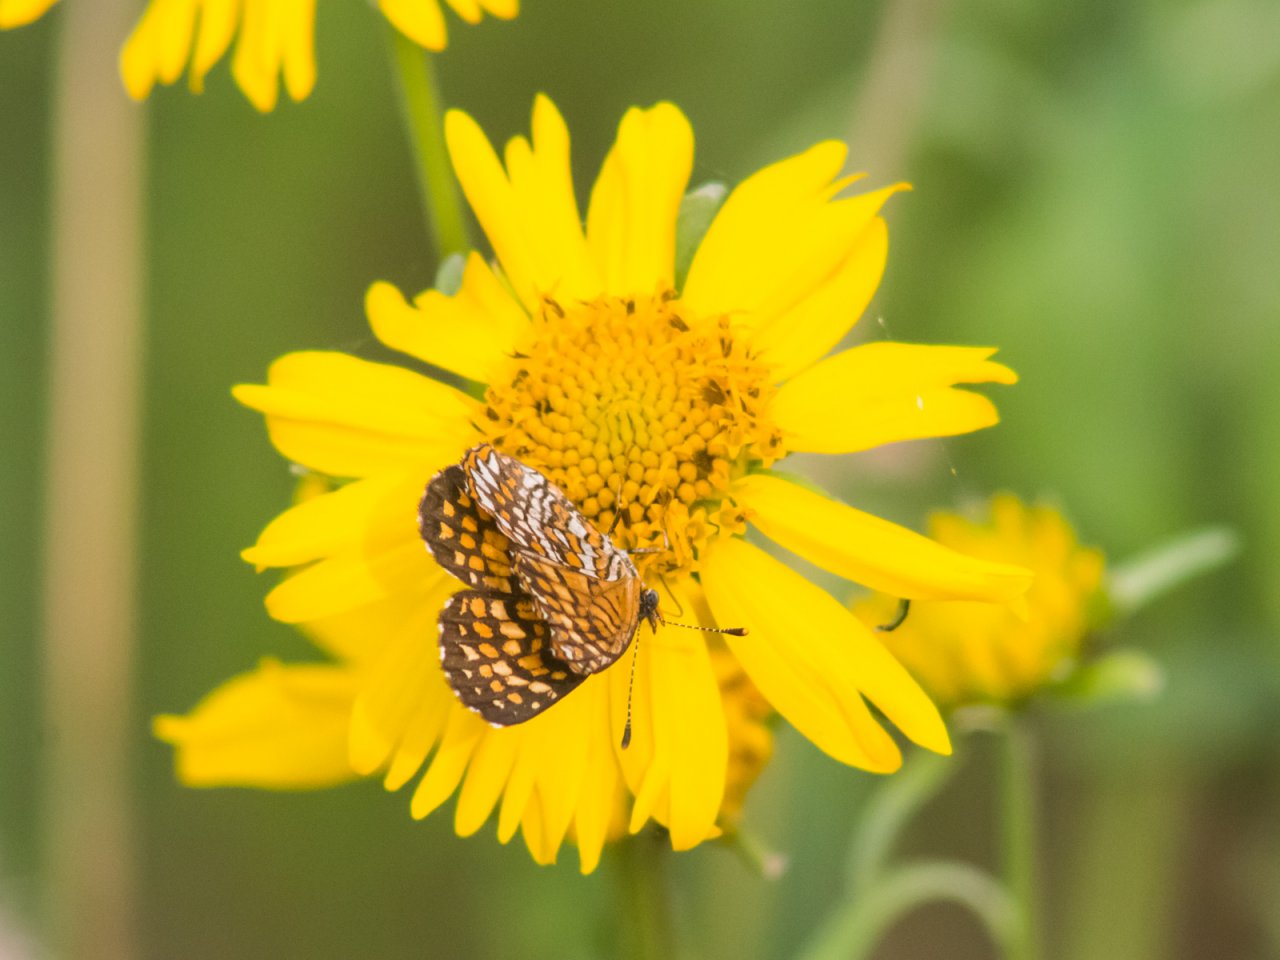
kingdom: Animalia
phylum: Arthropoda
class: Insecta
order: Lepidoptera
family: Nymphalidae
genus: Texola
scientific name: Texola elada
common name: Elada Checkerspot
